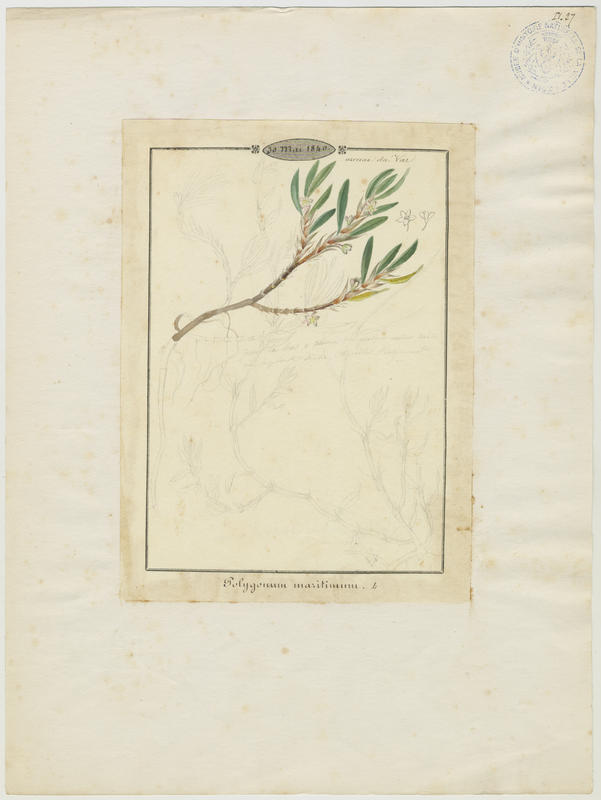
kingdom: Plantae
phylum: Tracheophyta
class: Magnoliopsida
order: Caryophyllales
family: Polygonaceae
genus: Polygonum
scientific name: Polygonum maritimum
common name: Sea knotgrass
